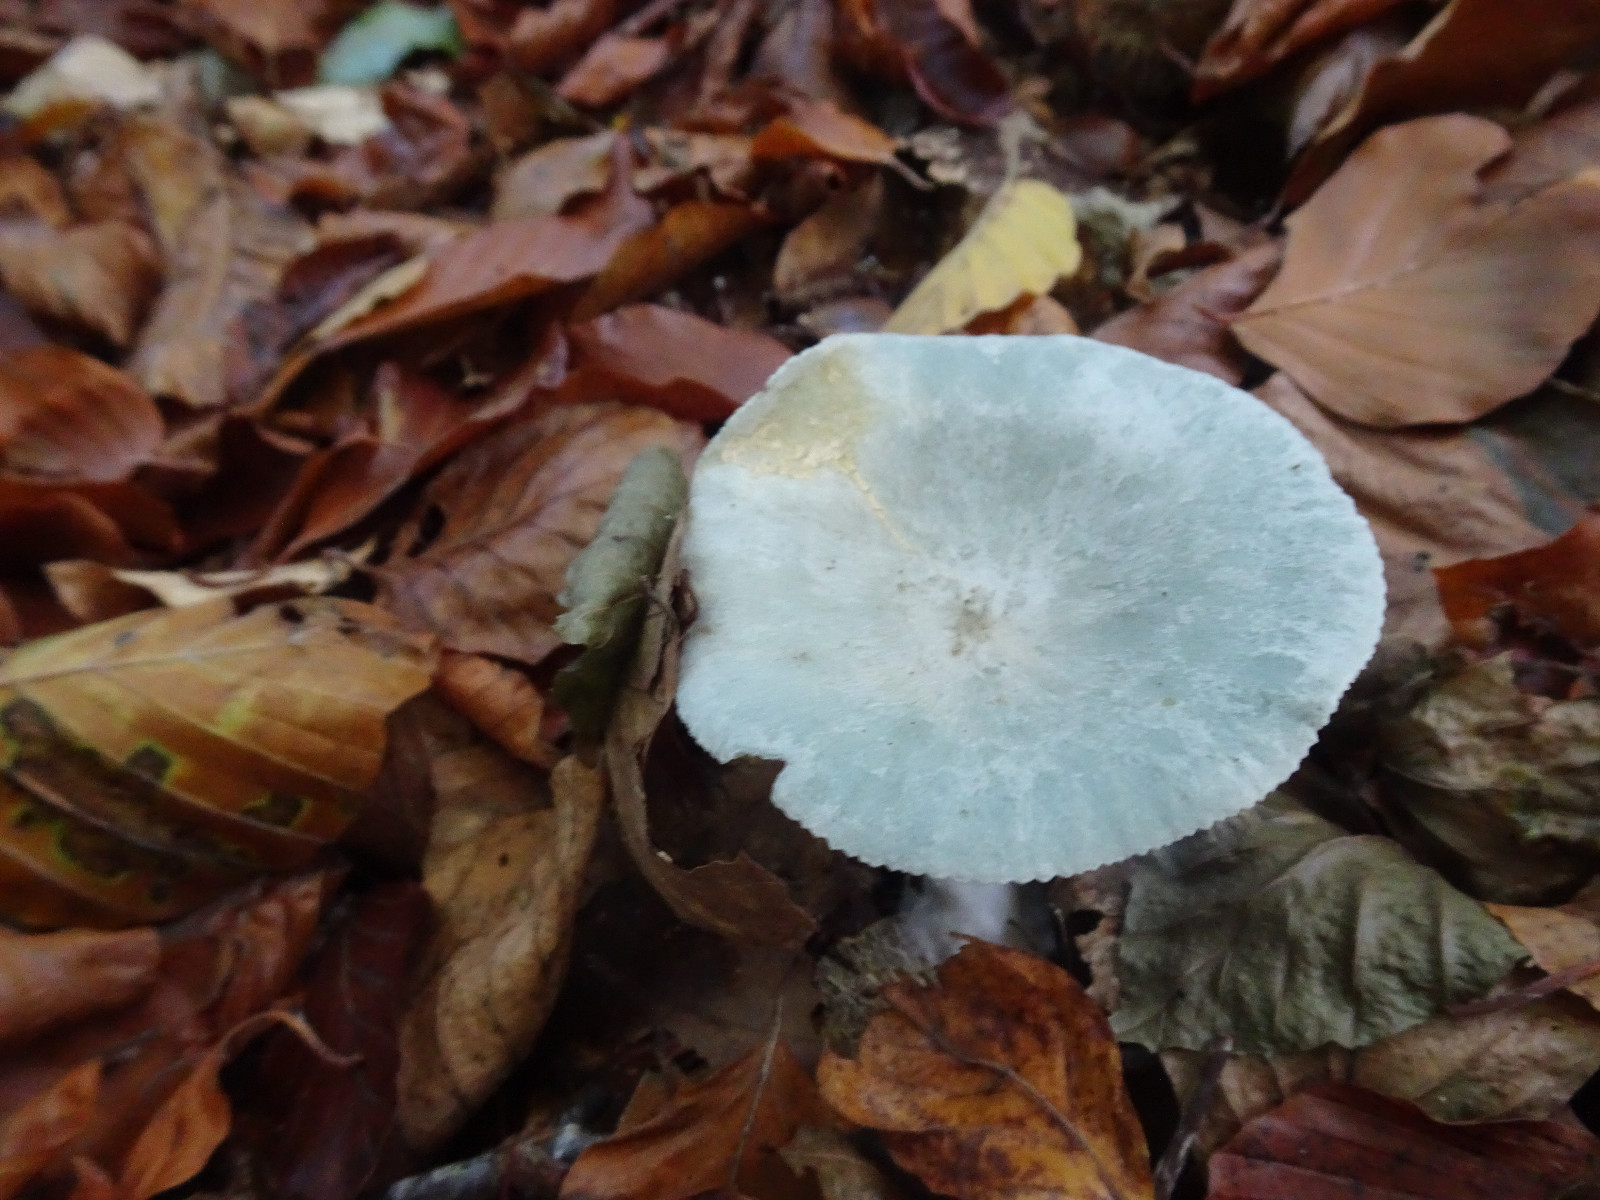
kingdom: Fungi
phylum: Basidiomycota
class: Agaricomycetes
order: Agaricales
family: Tricholomataceae
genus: Clitocybe
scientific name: Clitocybe odora
